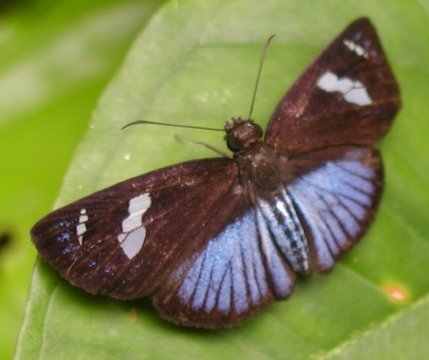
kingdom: Animalia
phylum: Arthropoda
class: Insecta
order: Lepidoptera
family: Hesperiidae
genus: Pythonides
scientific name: Pythonides jovianus
